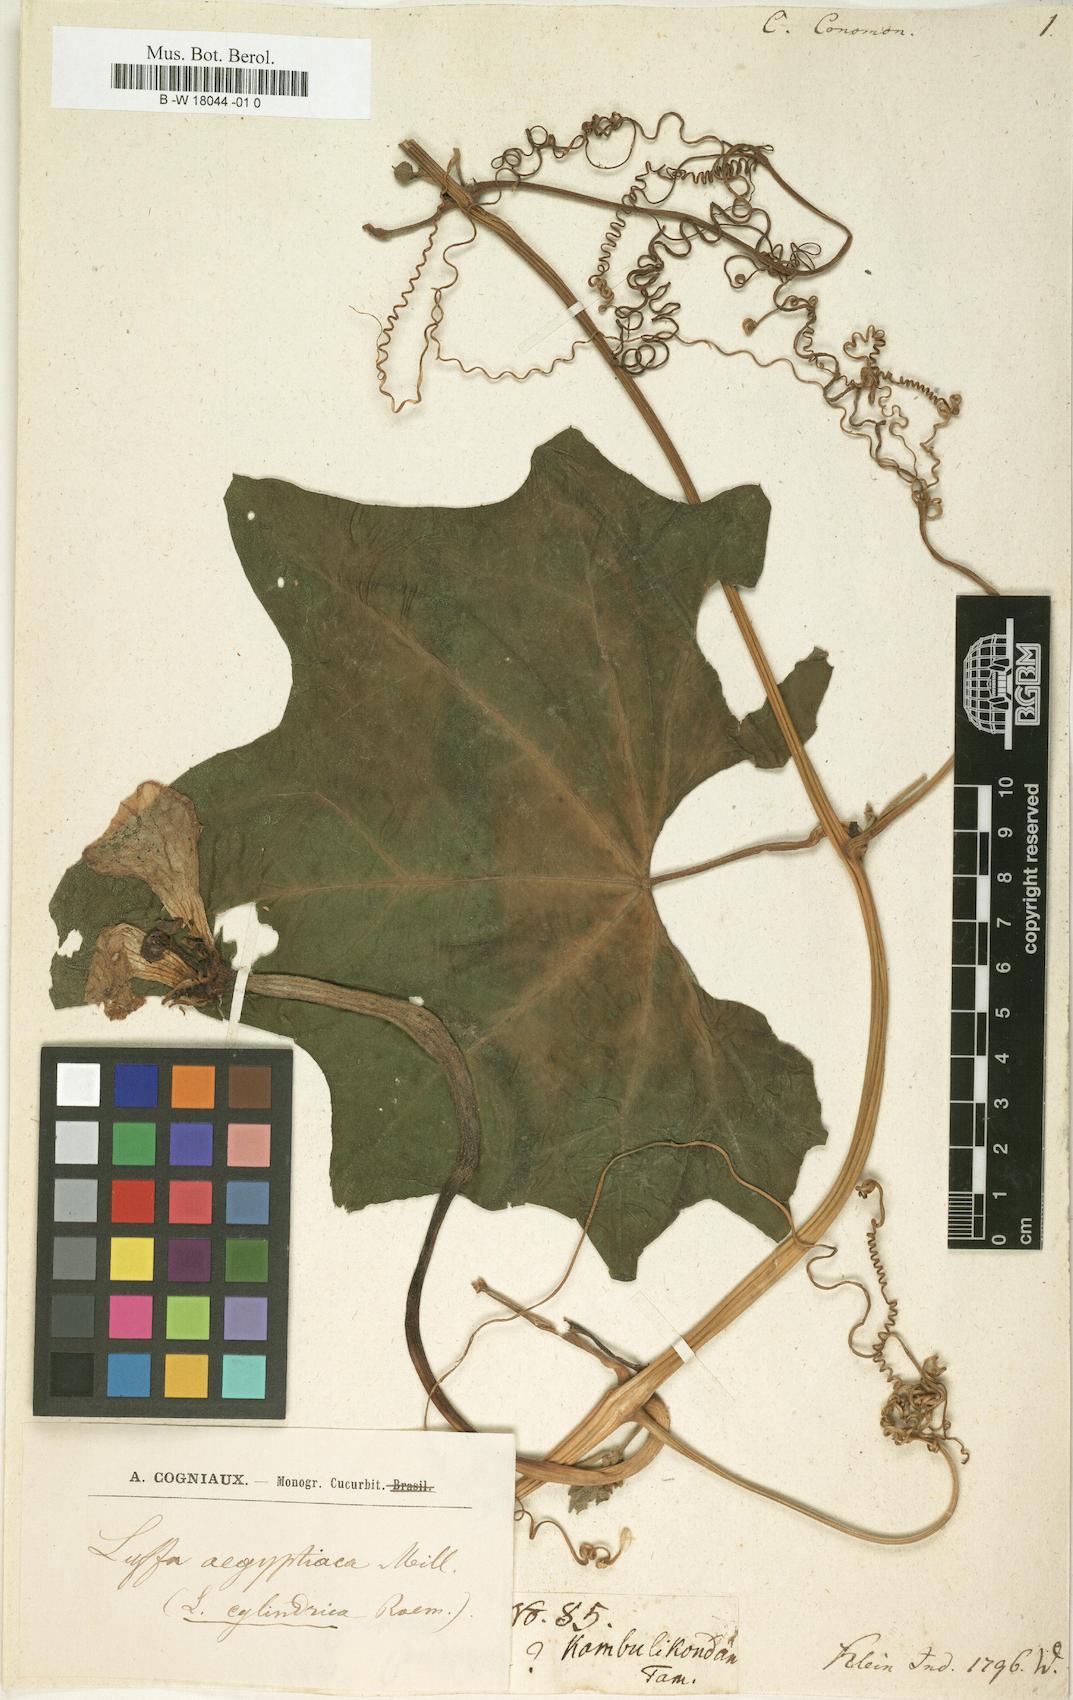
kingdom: Plantae
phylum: Tracheophyta
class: Magnoliopsida
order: Cucurbitales
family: Cucurbitaceae
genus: Cucumis
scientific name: Cucumis melo
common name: Melon
